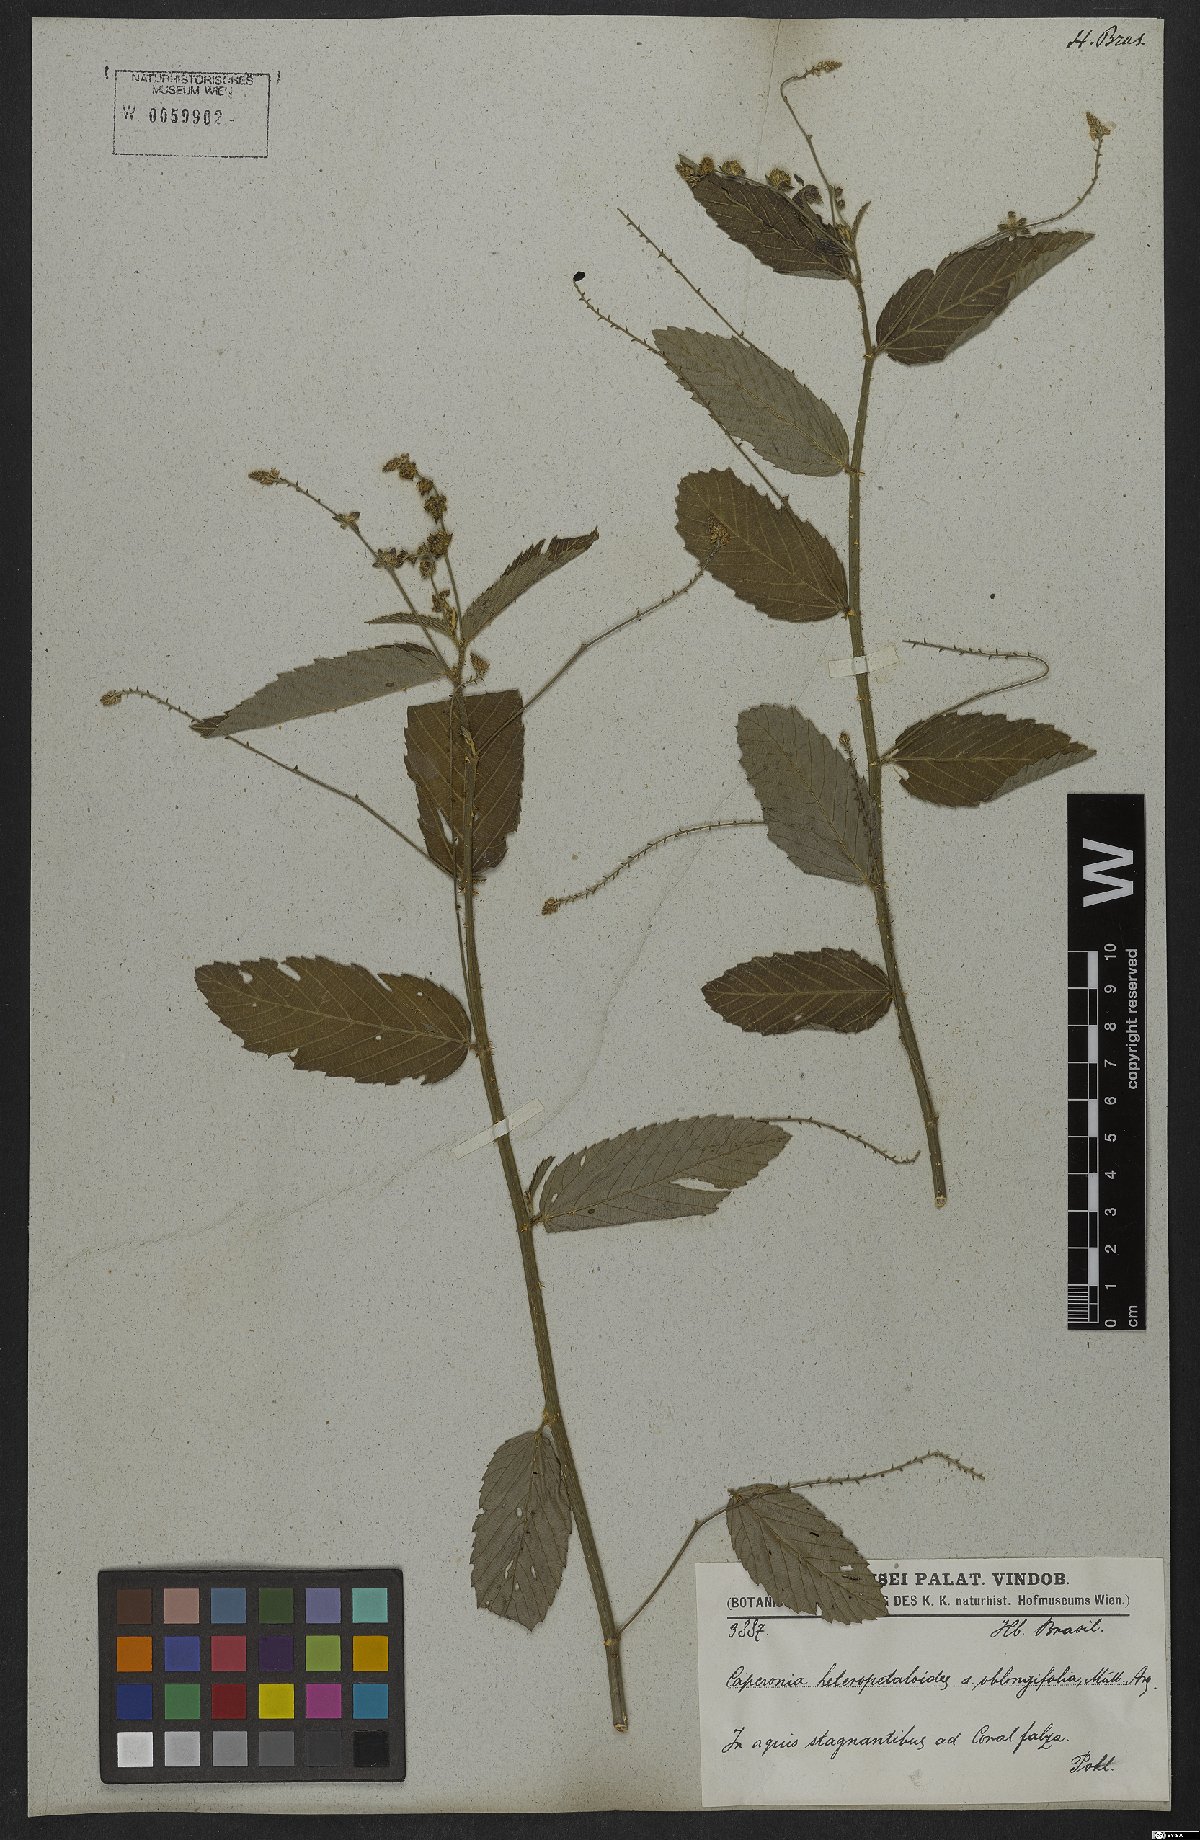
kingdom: Plantae
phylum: Tracheophyta
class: Magnoliopsida
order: Malpighiales
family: Euphorbiaceae
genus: Caperonia
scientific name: Caperonia heteropetala
